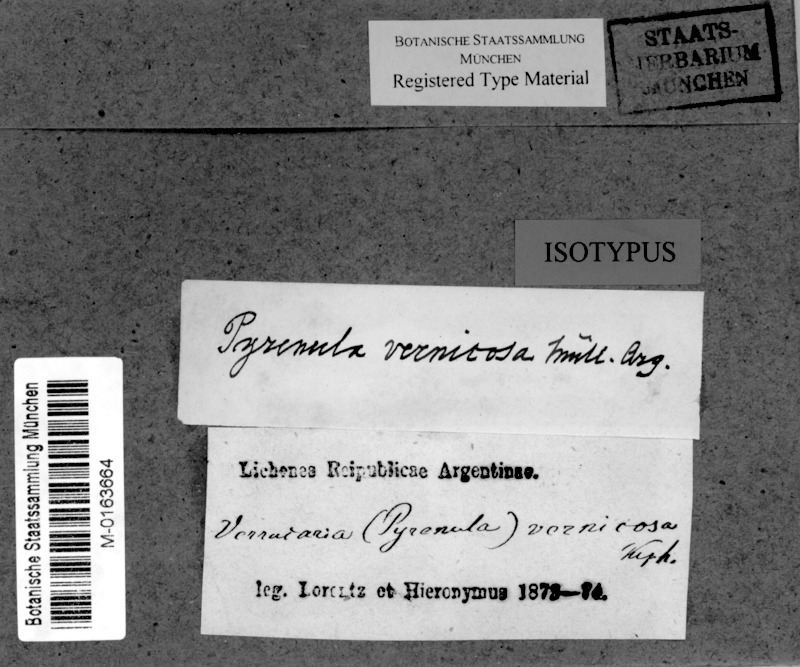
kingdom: Fungi
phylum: Ascomycota
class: Eurotiomycetes
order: Pyrenulales
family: Pyrenulaceae
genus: Pyrenula
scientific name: Pyrenula
